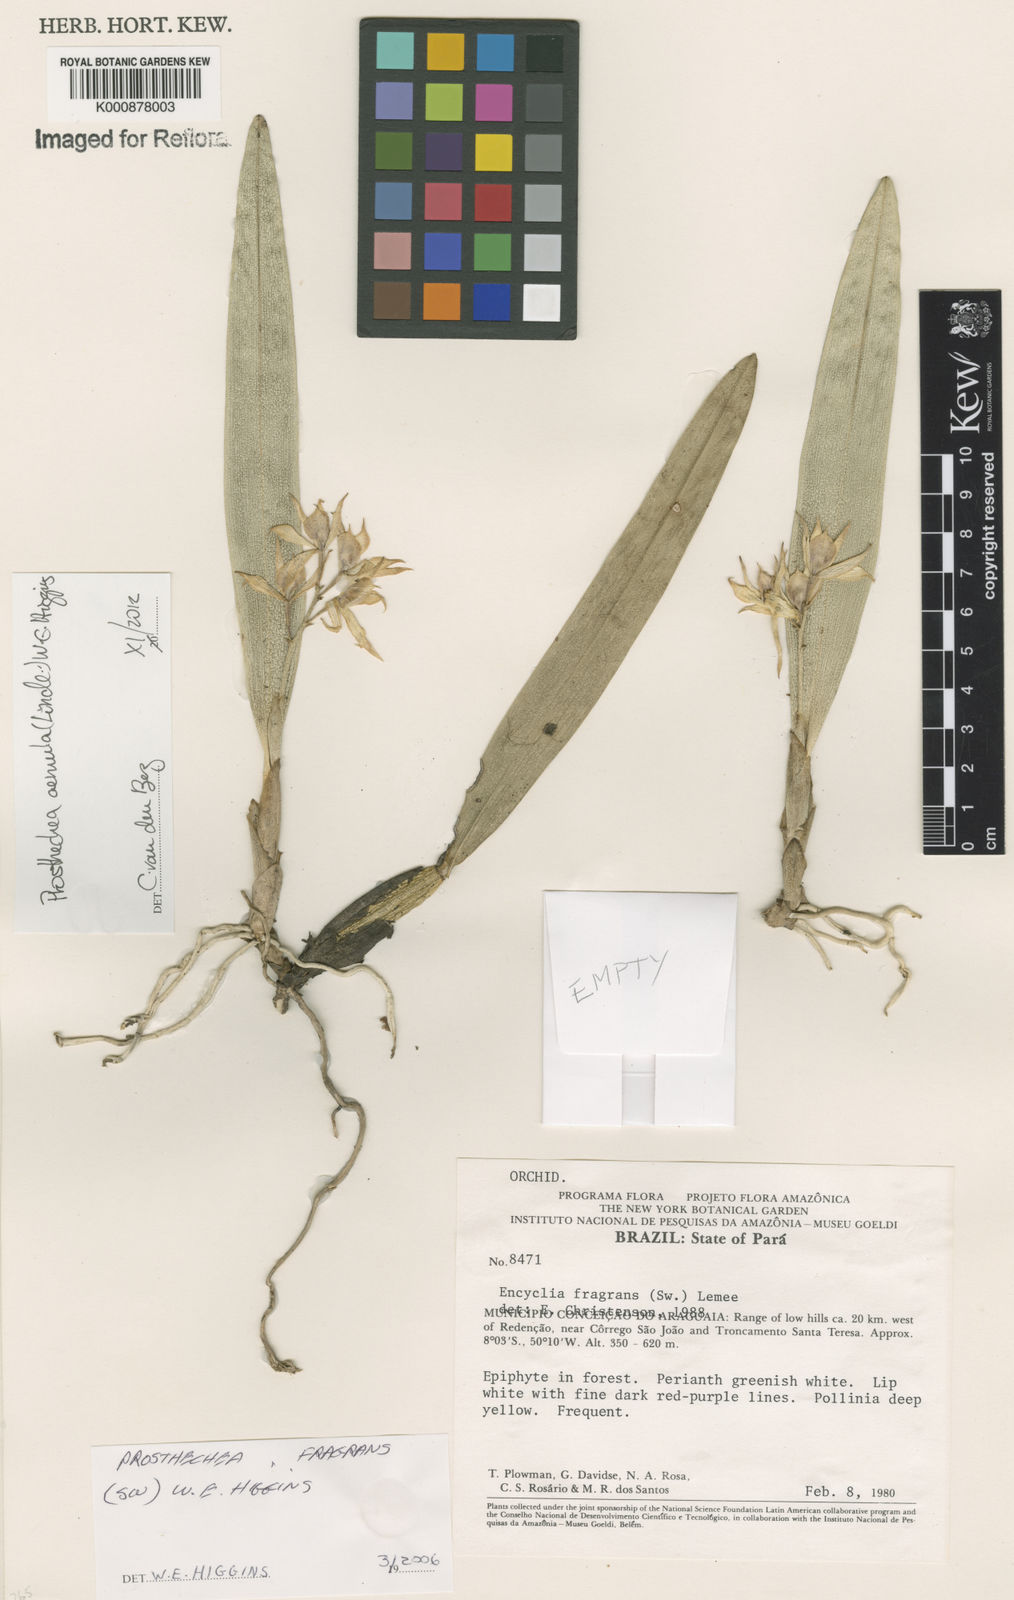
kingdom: Plantae
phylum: Tracheophyta
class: Liliopsida
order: Asparagales
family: Orchidaceae
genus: Prosthechea
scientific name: Prosthechea aemula
